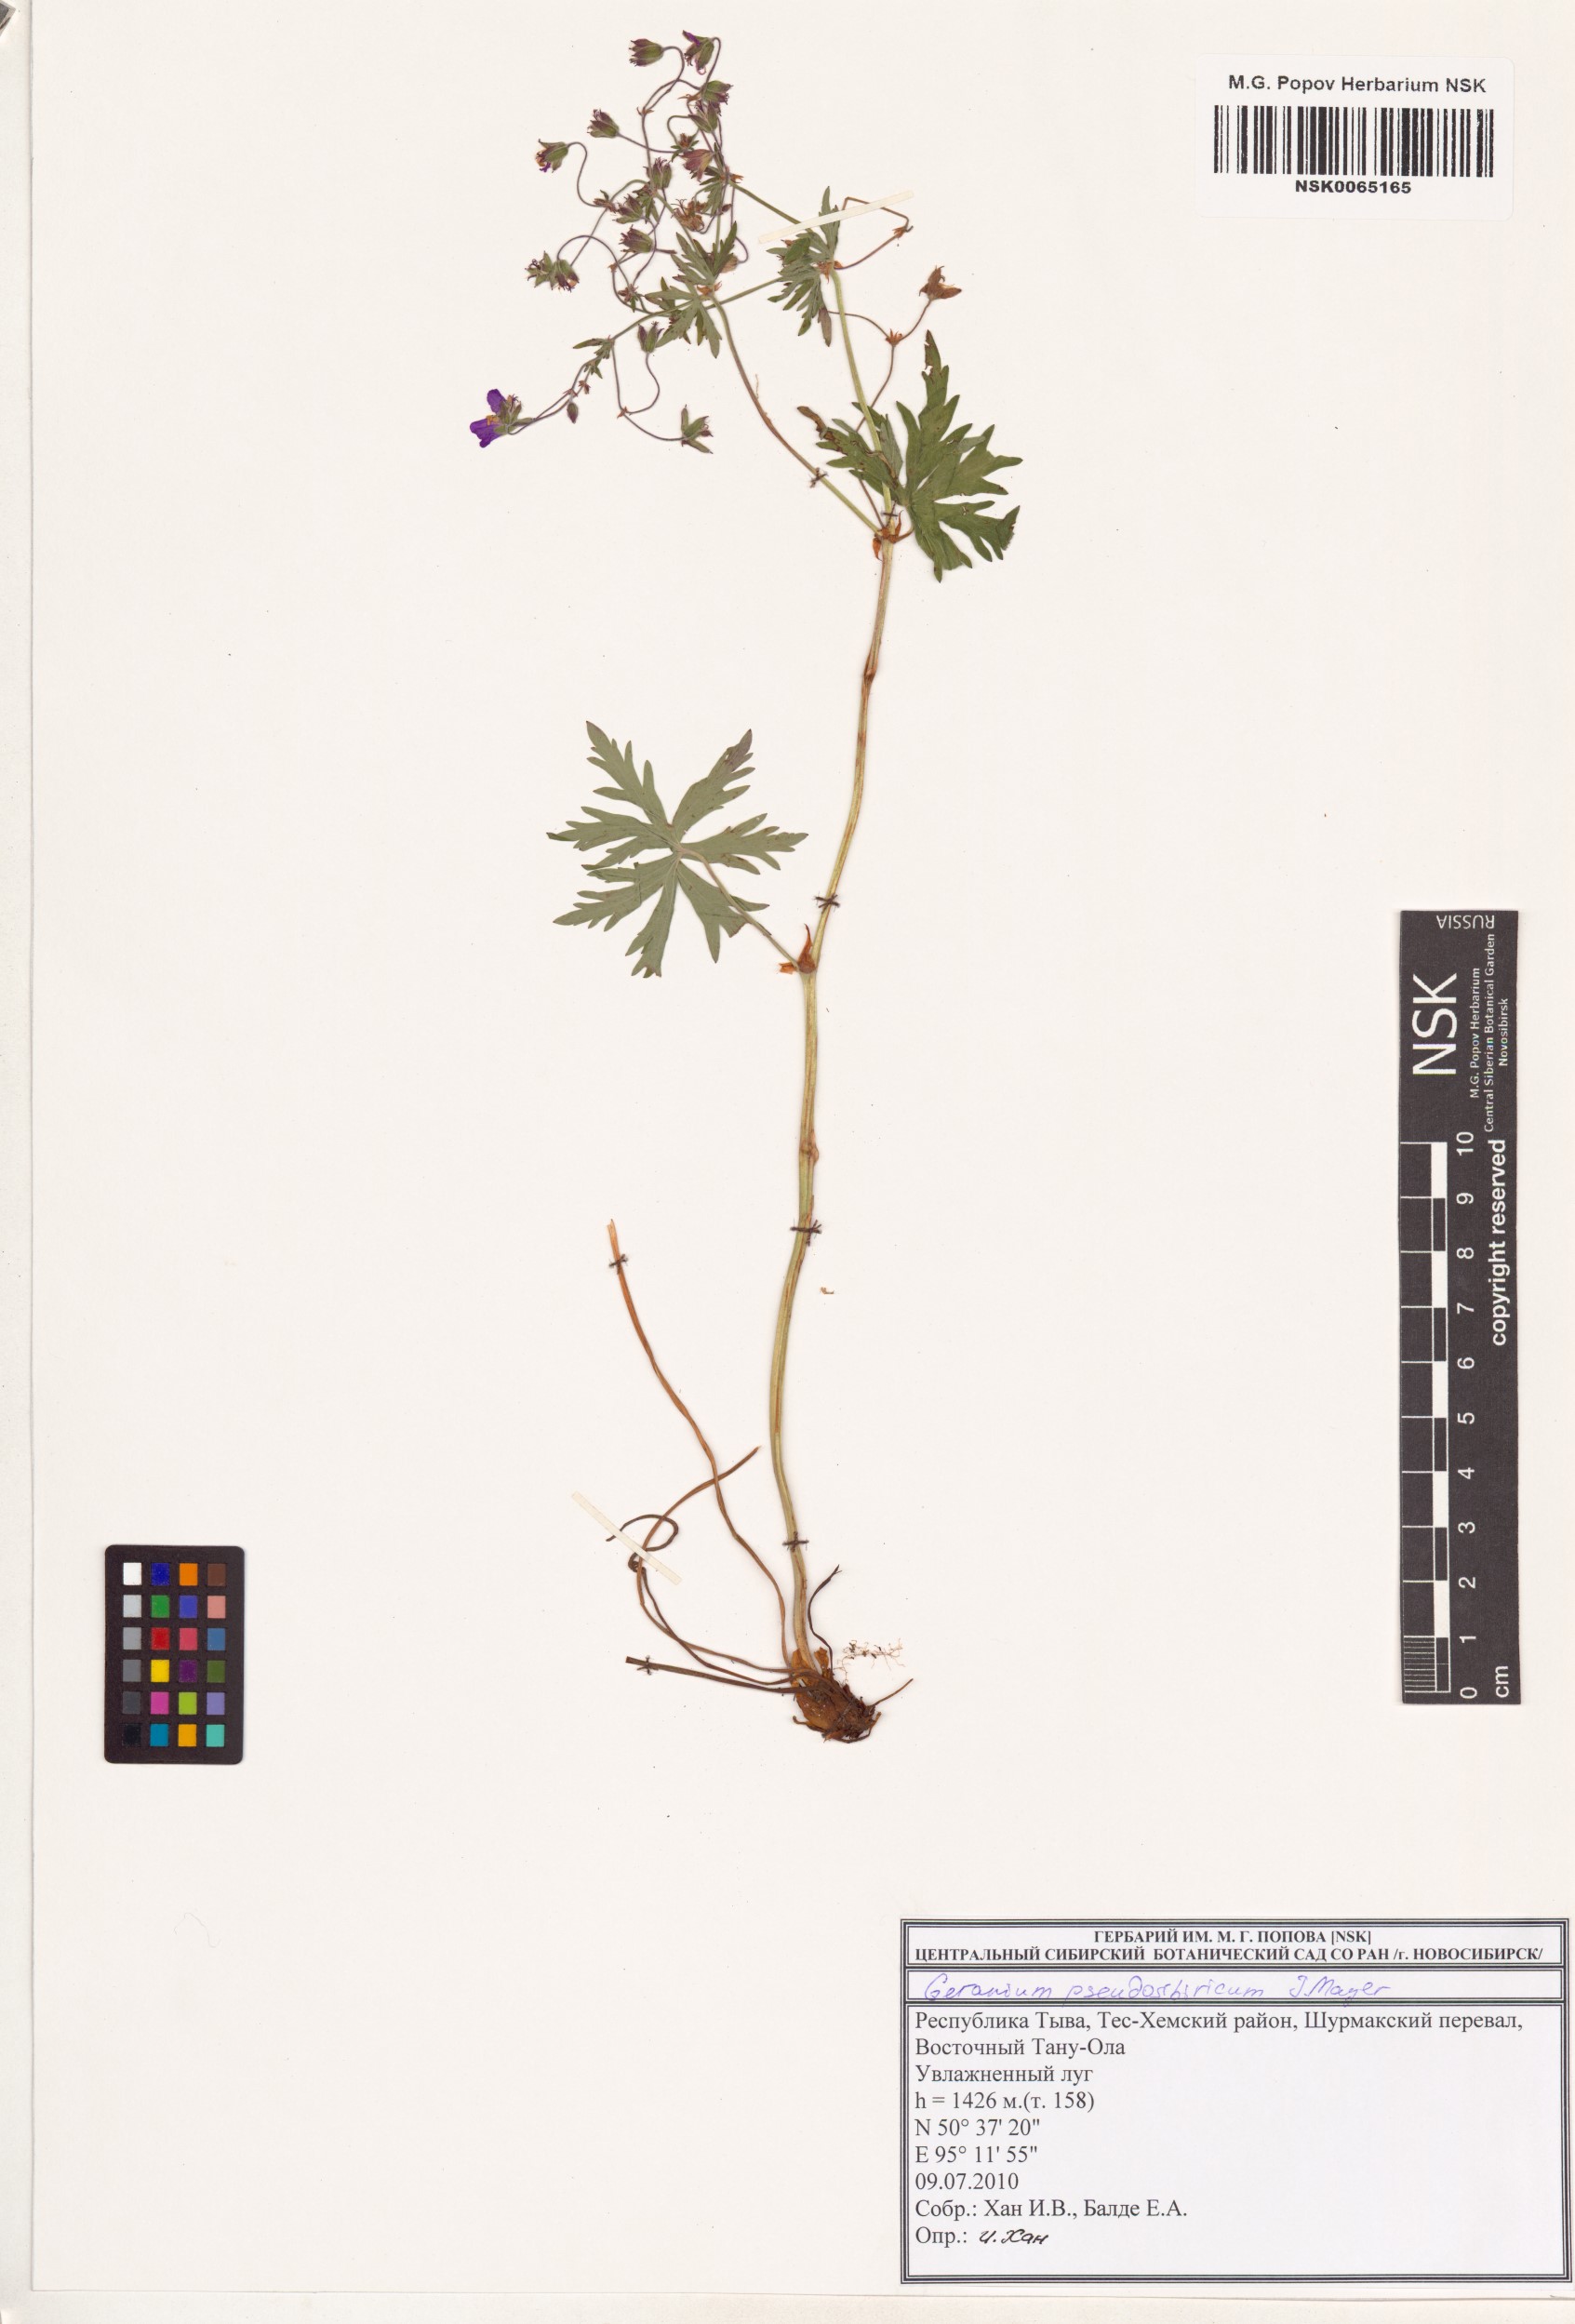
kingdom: Plantae
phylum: Tracheophyta
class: Magnoliopsida
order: Geraniales
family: Geraniaceae
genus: Geranium
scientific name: Geranium pseudosibiricum
